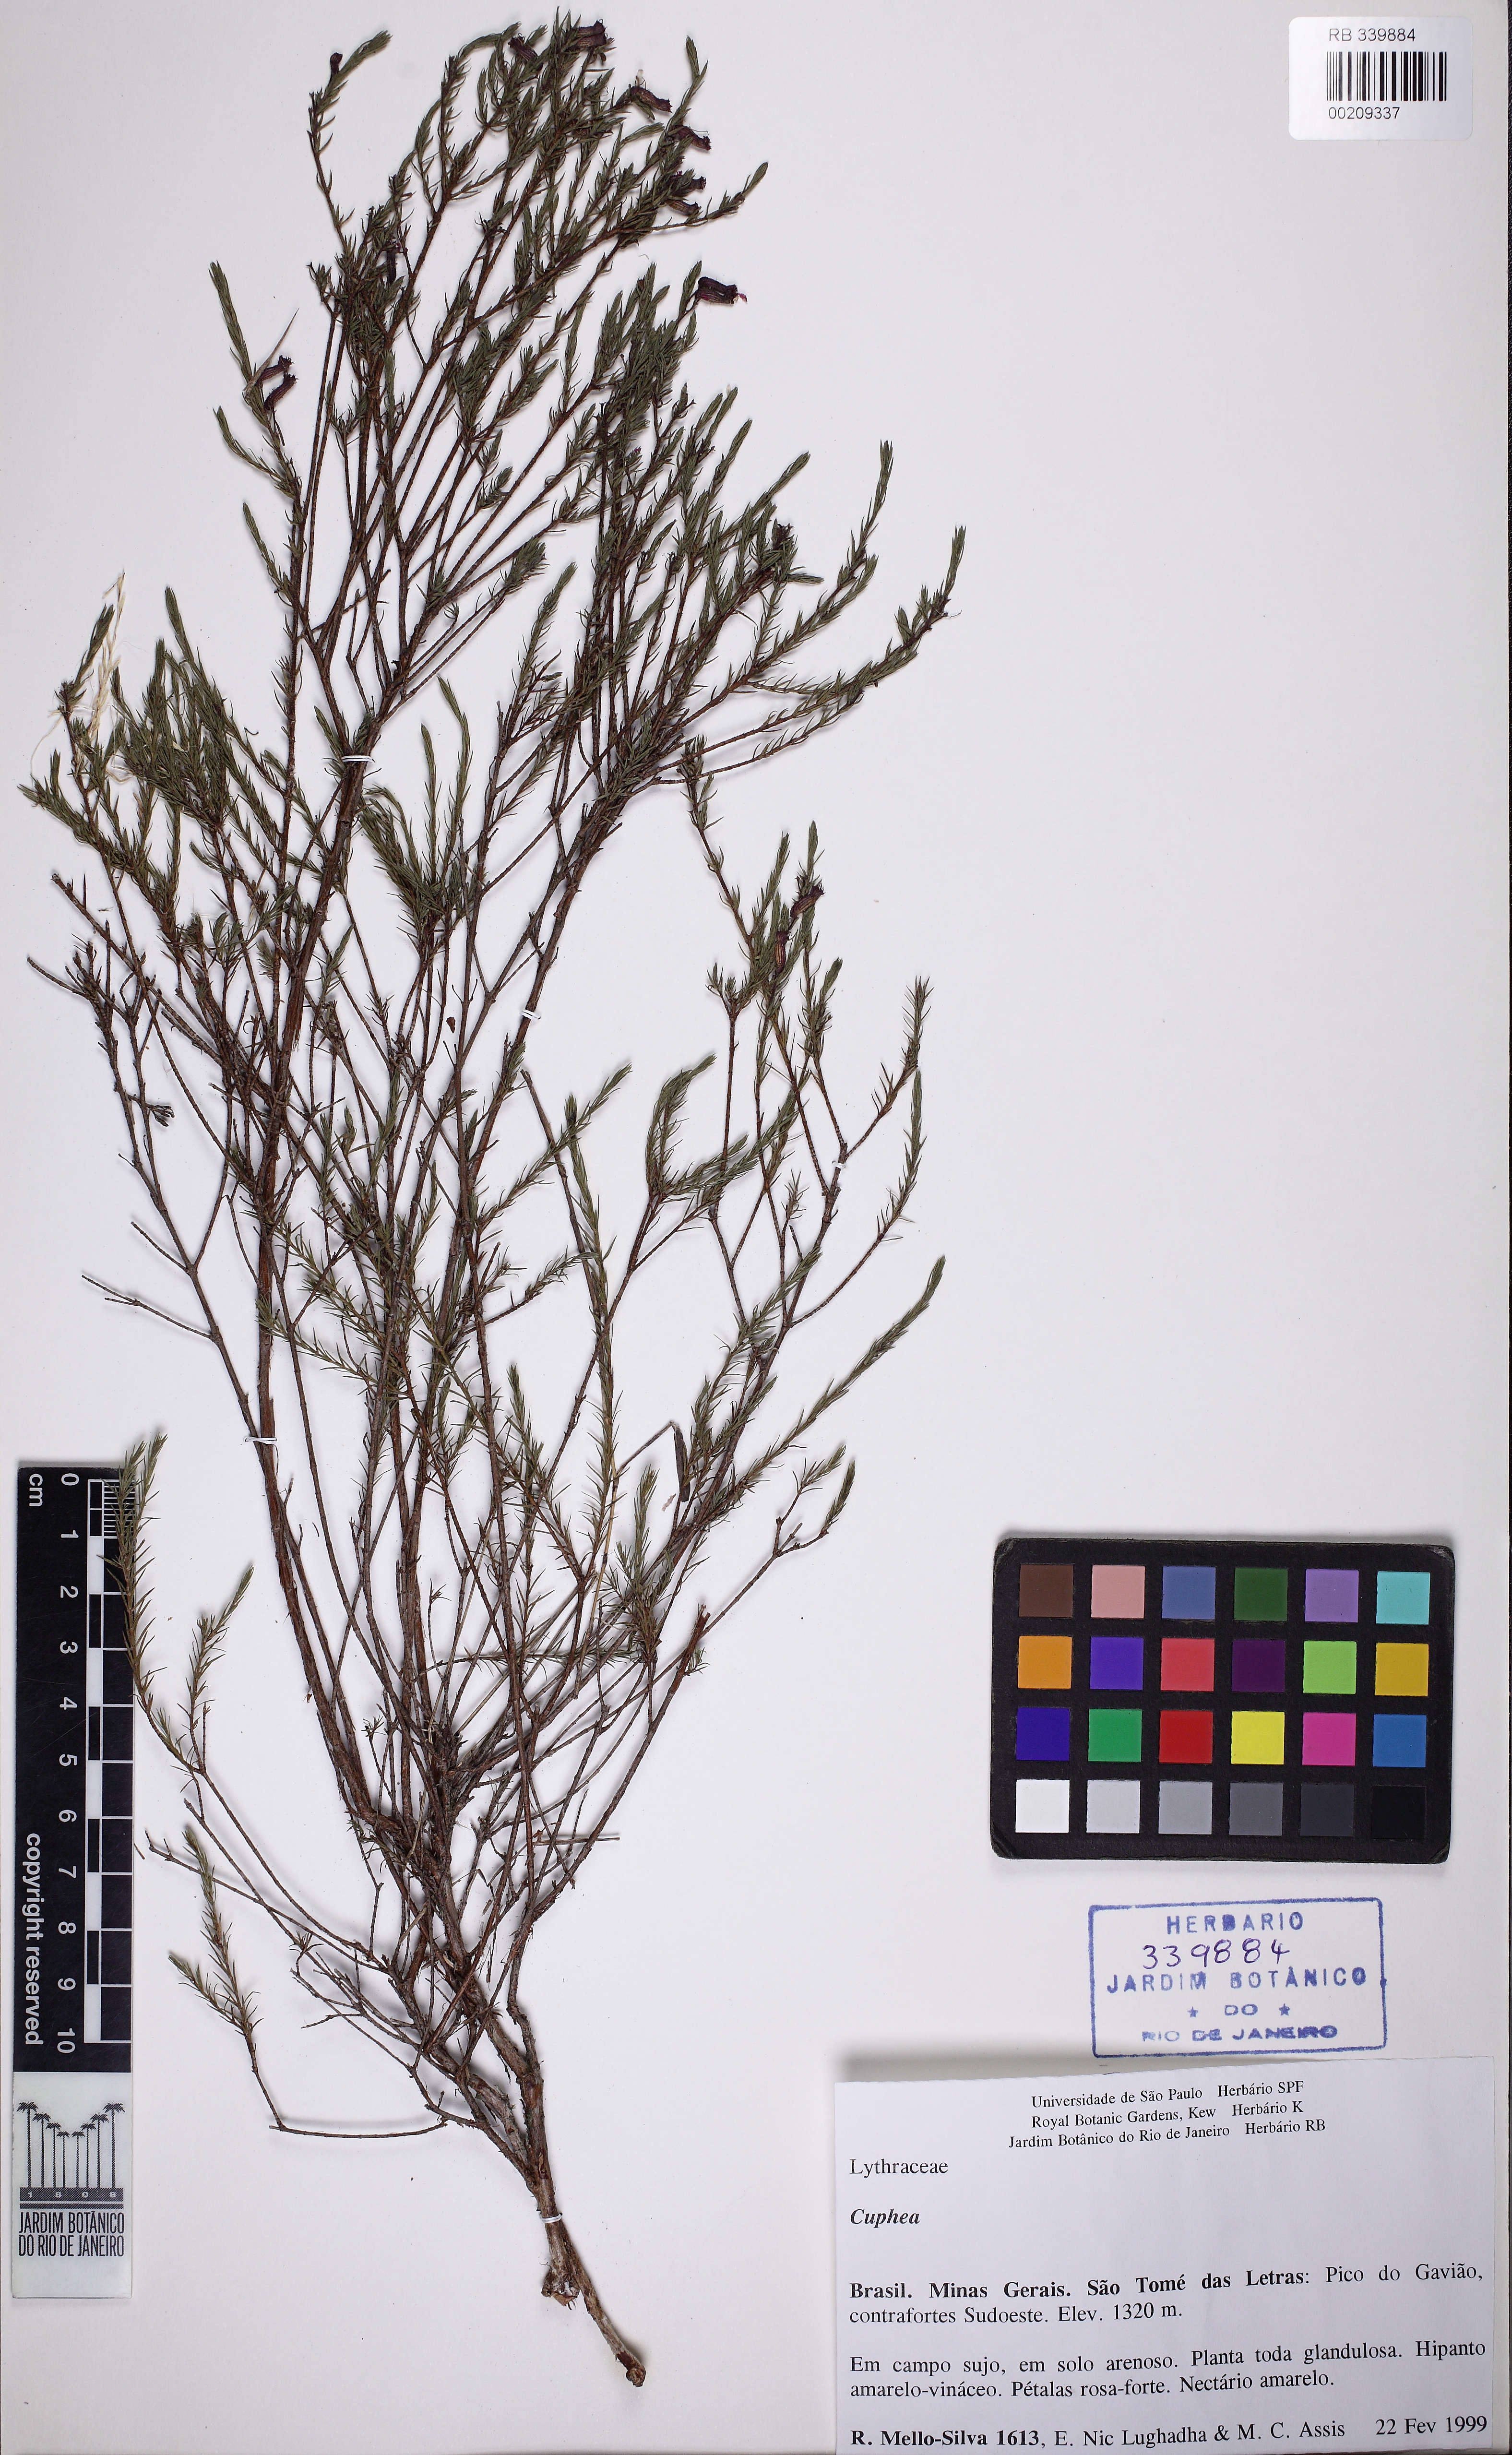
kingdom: Plantae
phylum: Tracheophyta
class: Magnoliopsida
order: Myrtales
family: Lythraceae
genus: Cuphea
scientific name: Cuphea ericoides
